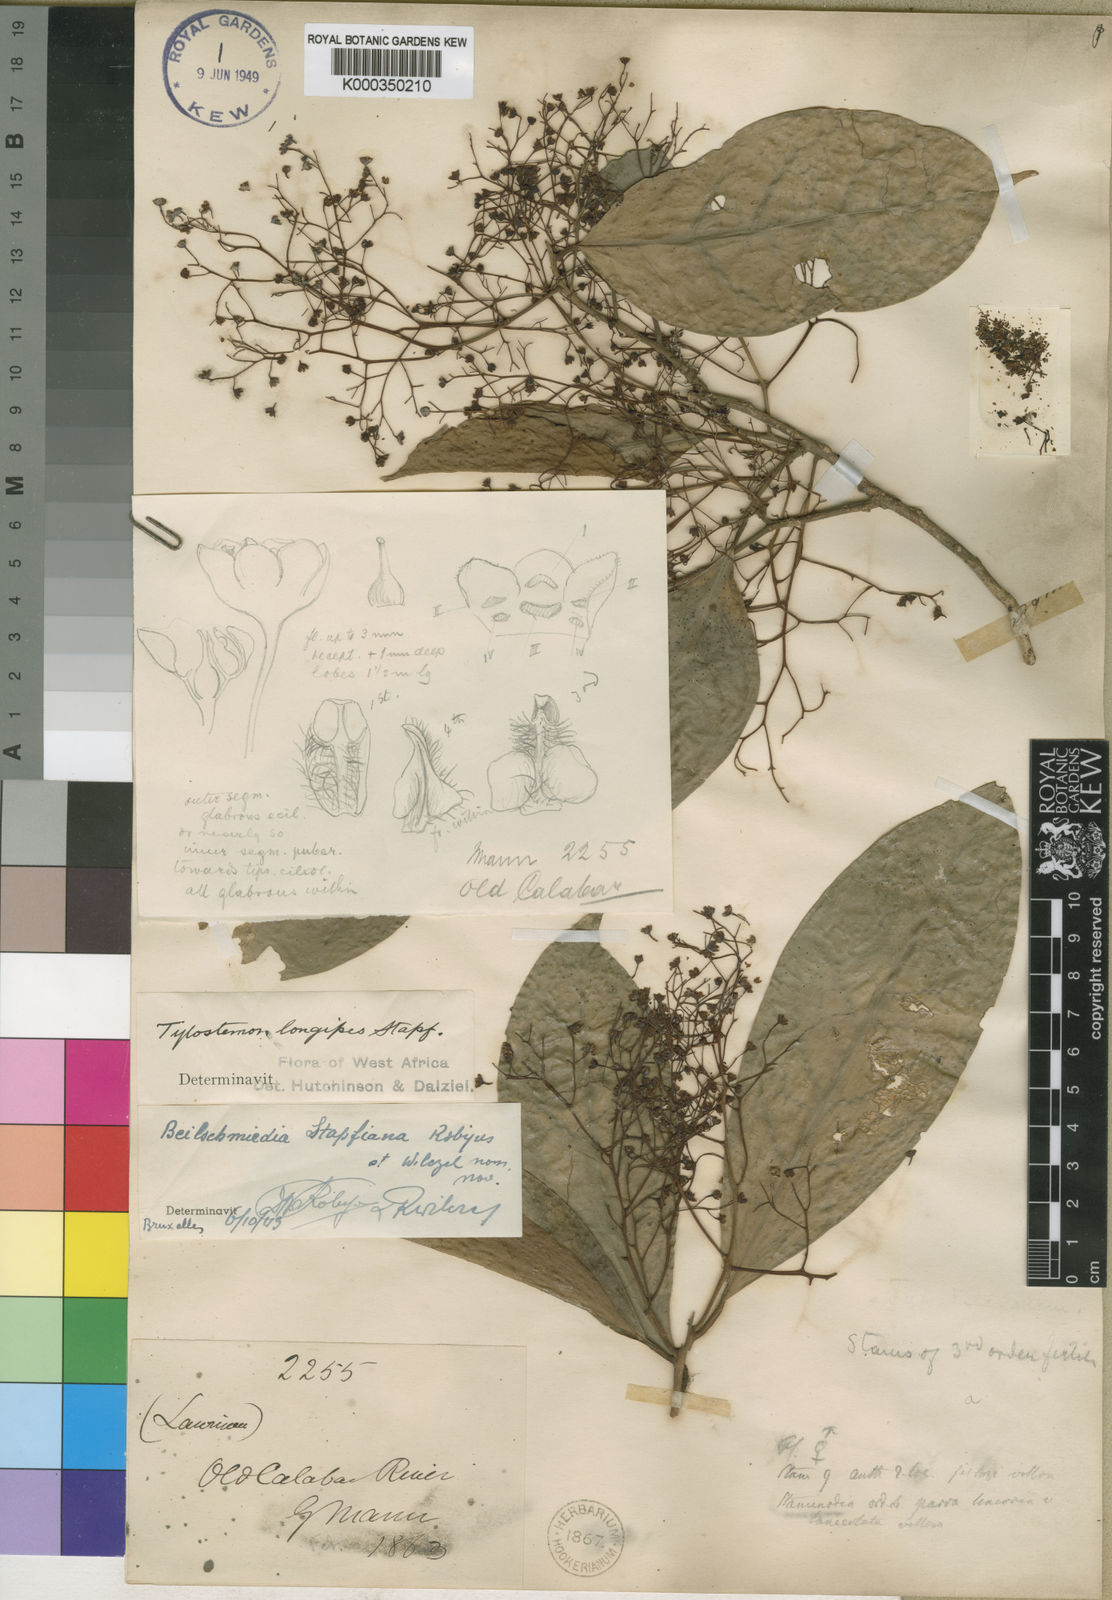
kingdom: Plantae
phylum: Tracheophyta
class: Magnoliopsida
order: Laurales
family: Lauraceae
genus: Beilschmiedia
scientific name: Beilschmiedia mannii
